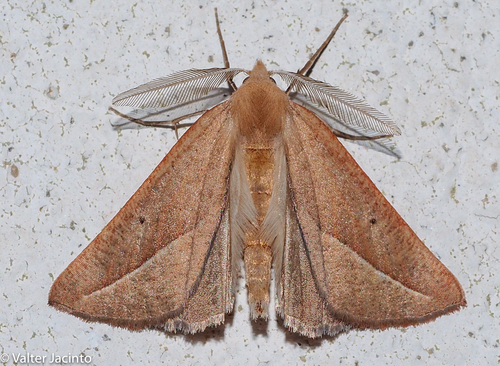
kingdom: Animalia
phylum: Arthropoda
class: Insecta
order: Lepidoptera
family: Geometridae
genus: Compsoptera
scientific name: Compsoptera opacaria
